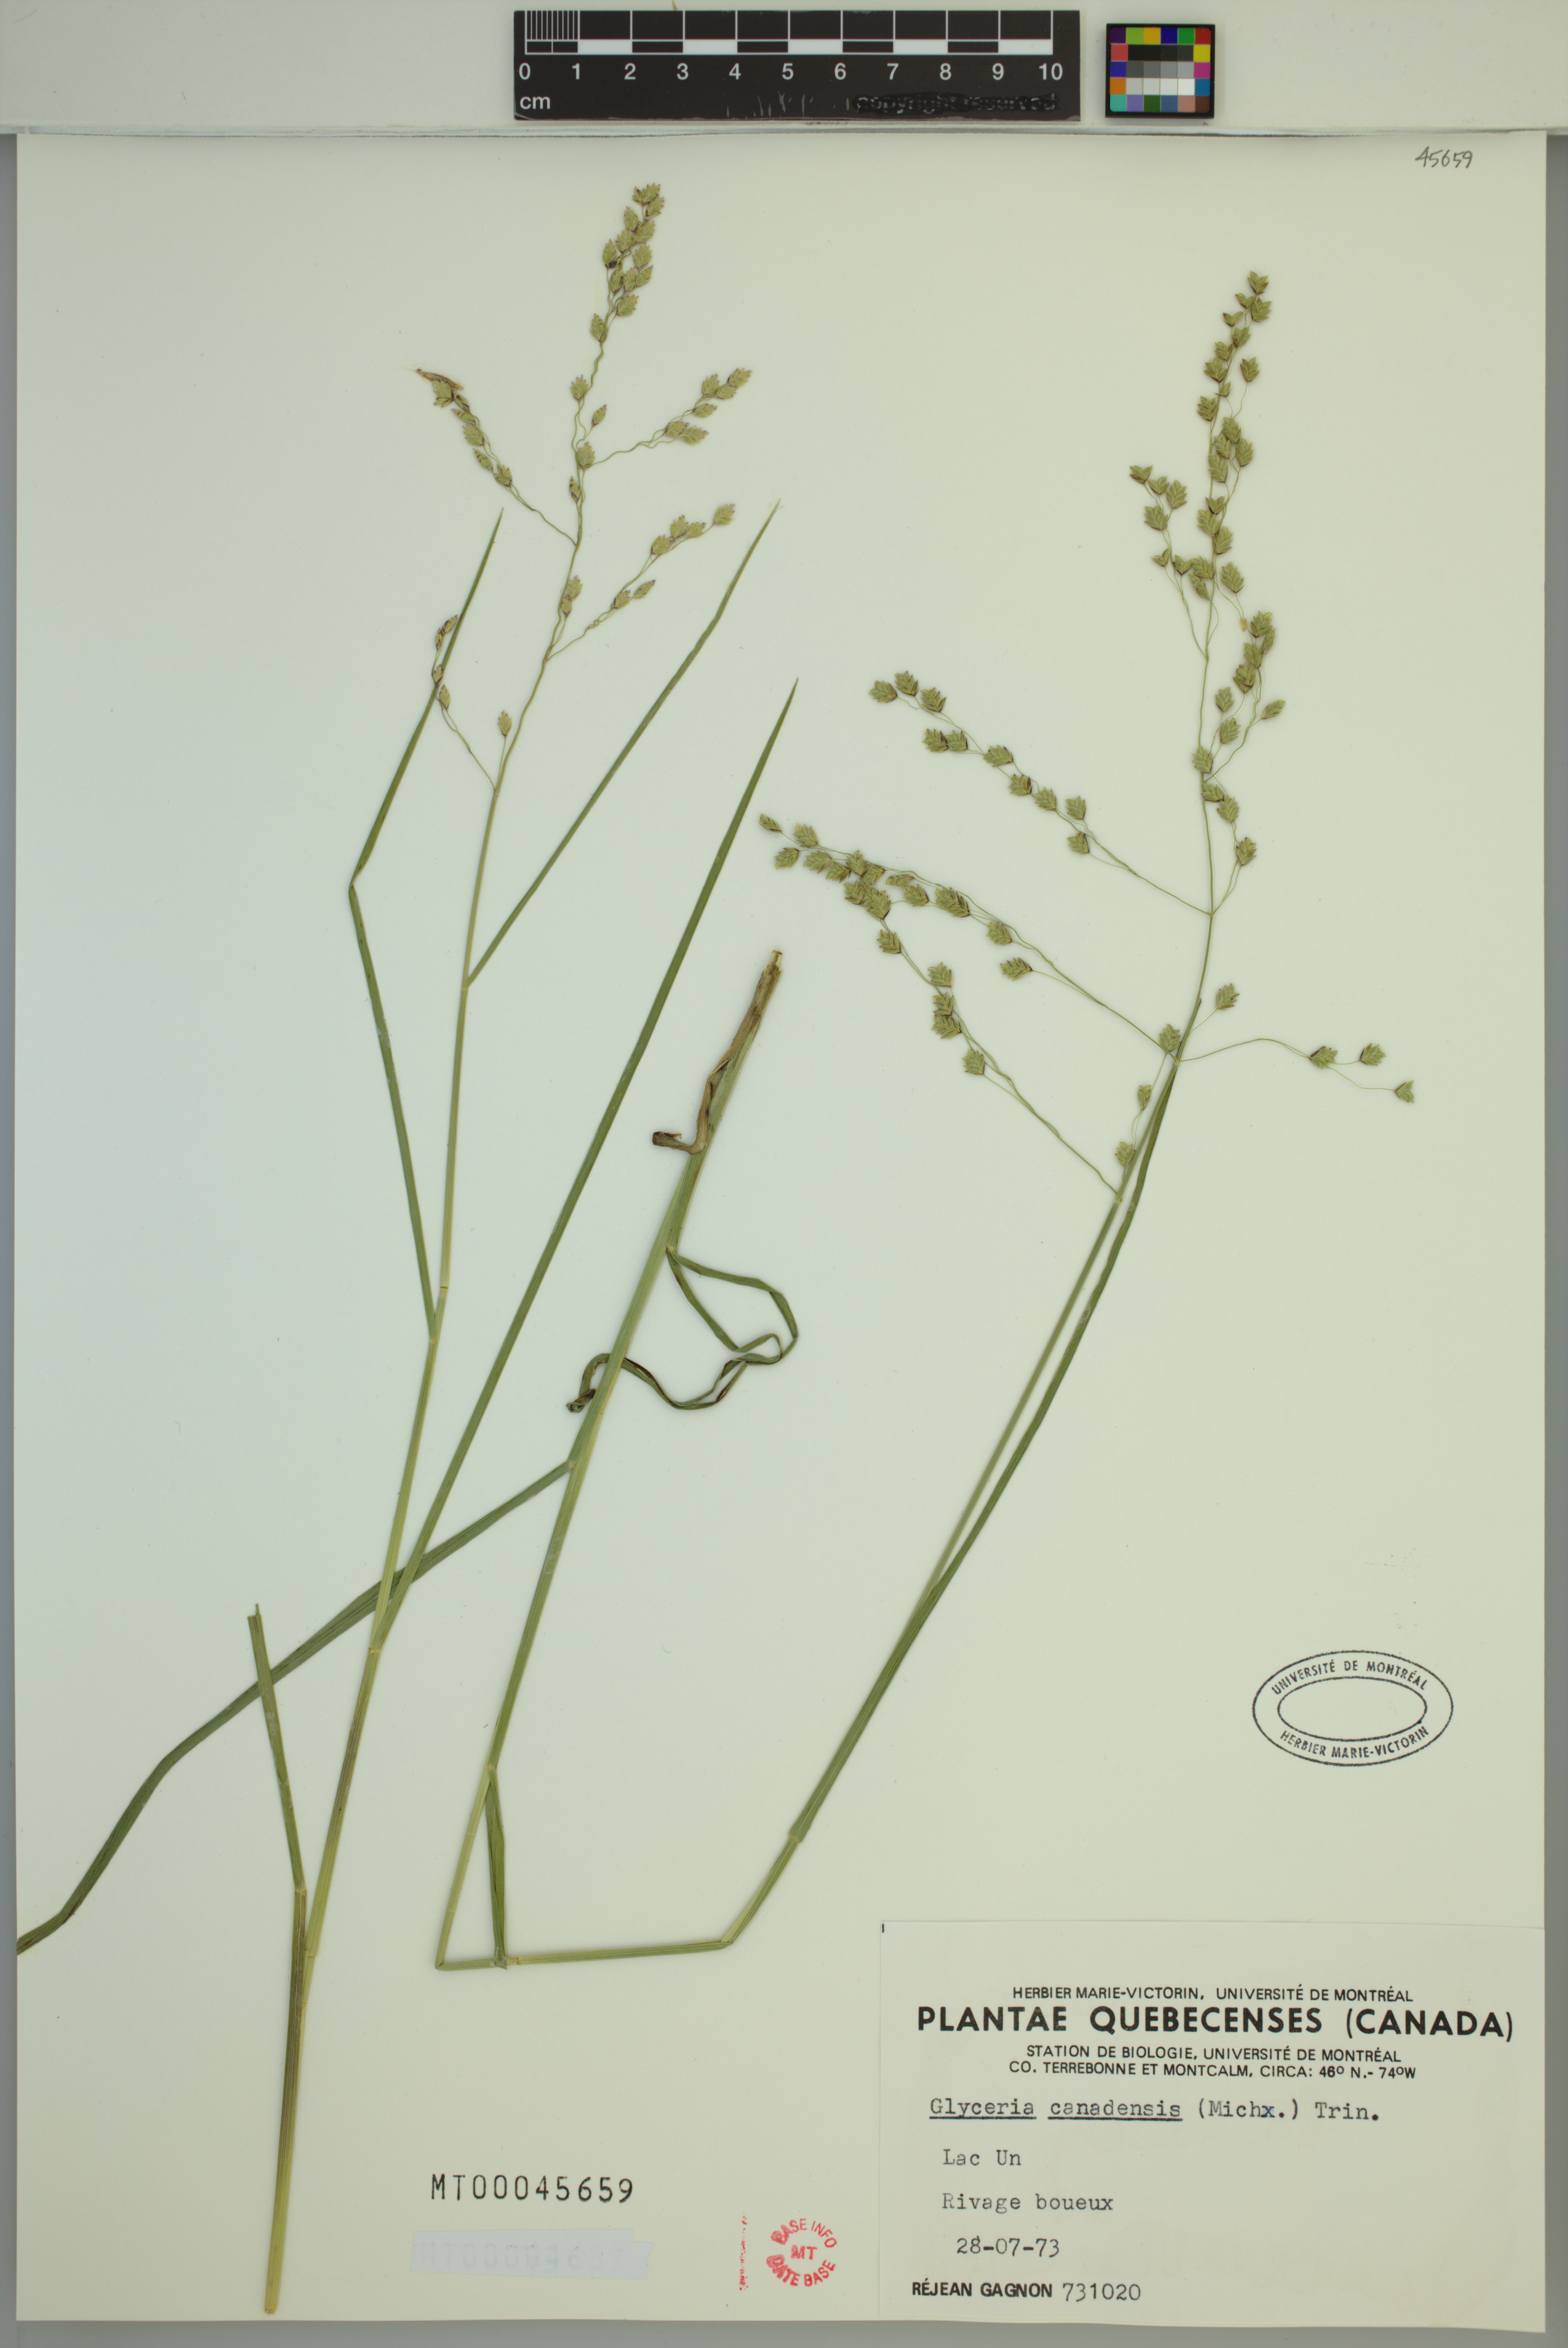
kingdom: Plantae
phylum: Tracheophyta
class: Liliopsida
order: Poales
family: Poaceae
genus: Glyceria
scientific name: Glyceria canadensis
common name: Canada mannagrass
